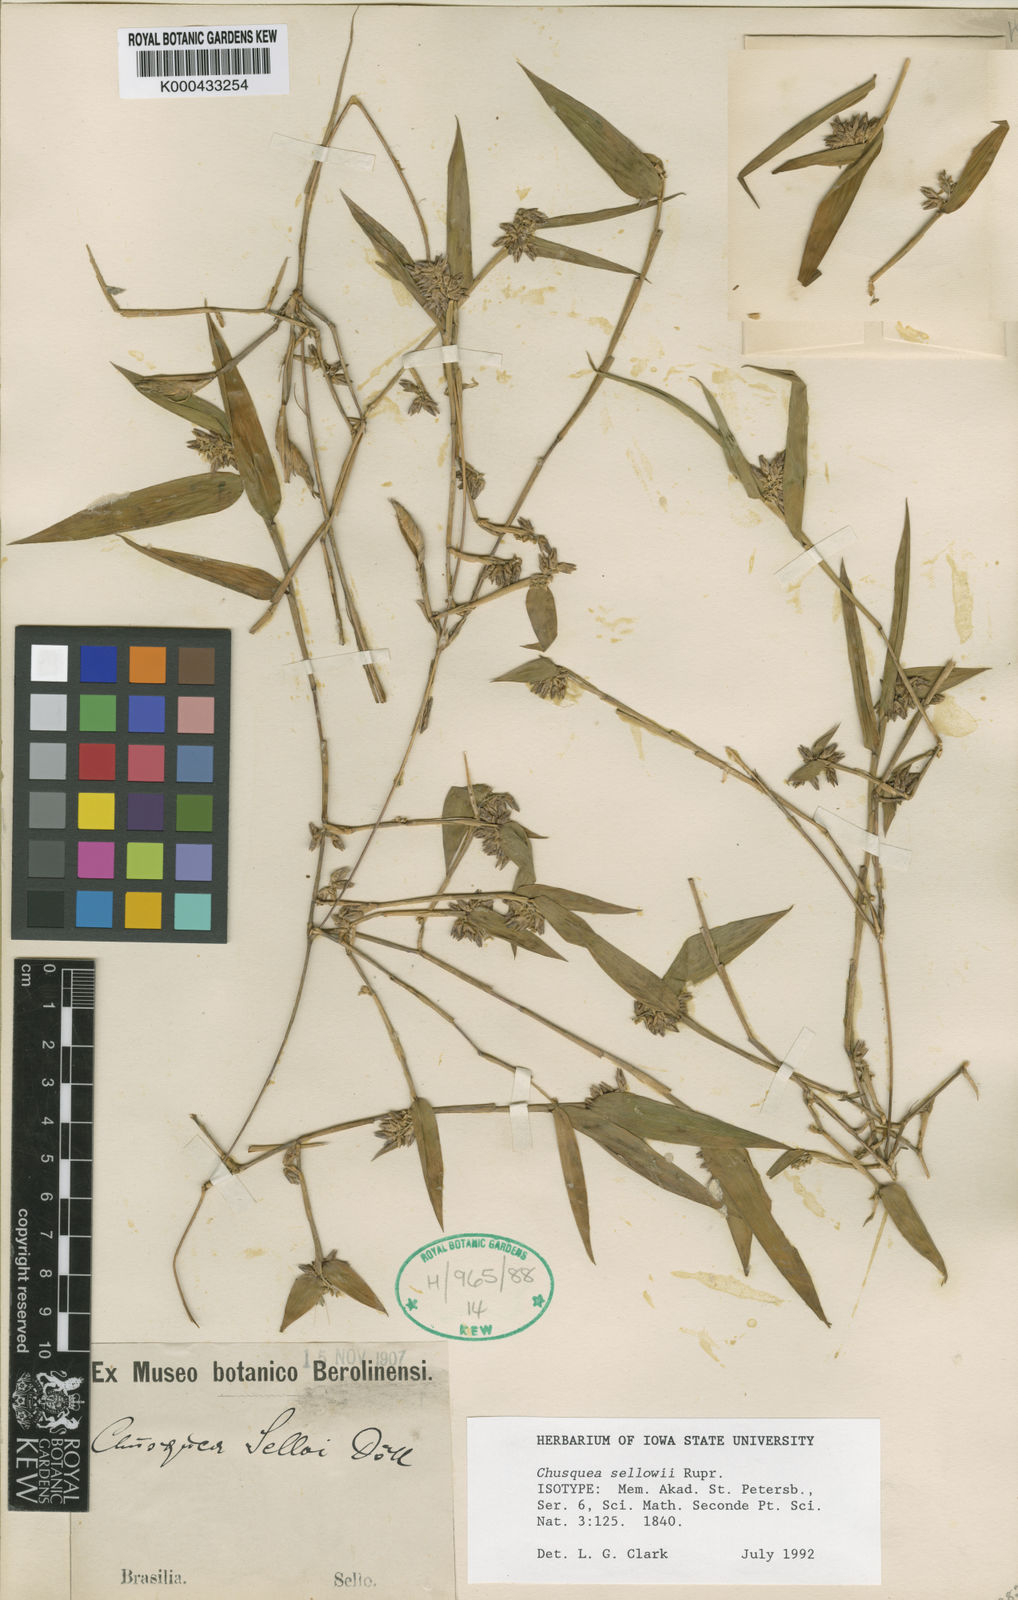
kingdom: Plantae
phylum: Tracheophyta
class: Liliopsida
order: Poales
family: Poaceae
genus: Chusquea
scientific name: Chusquea sellowii
